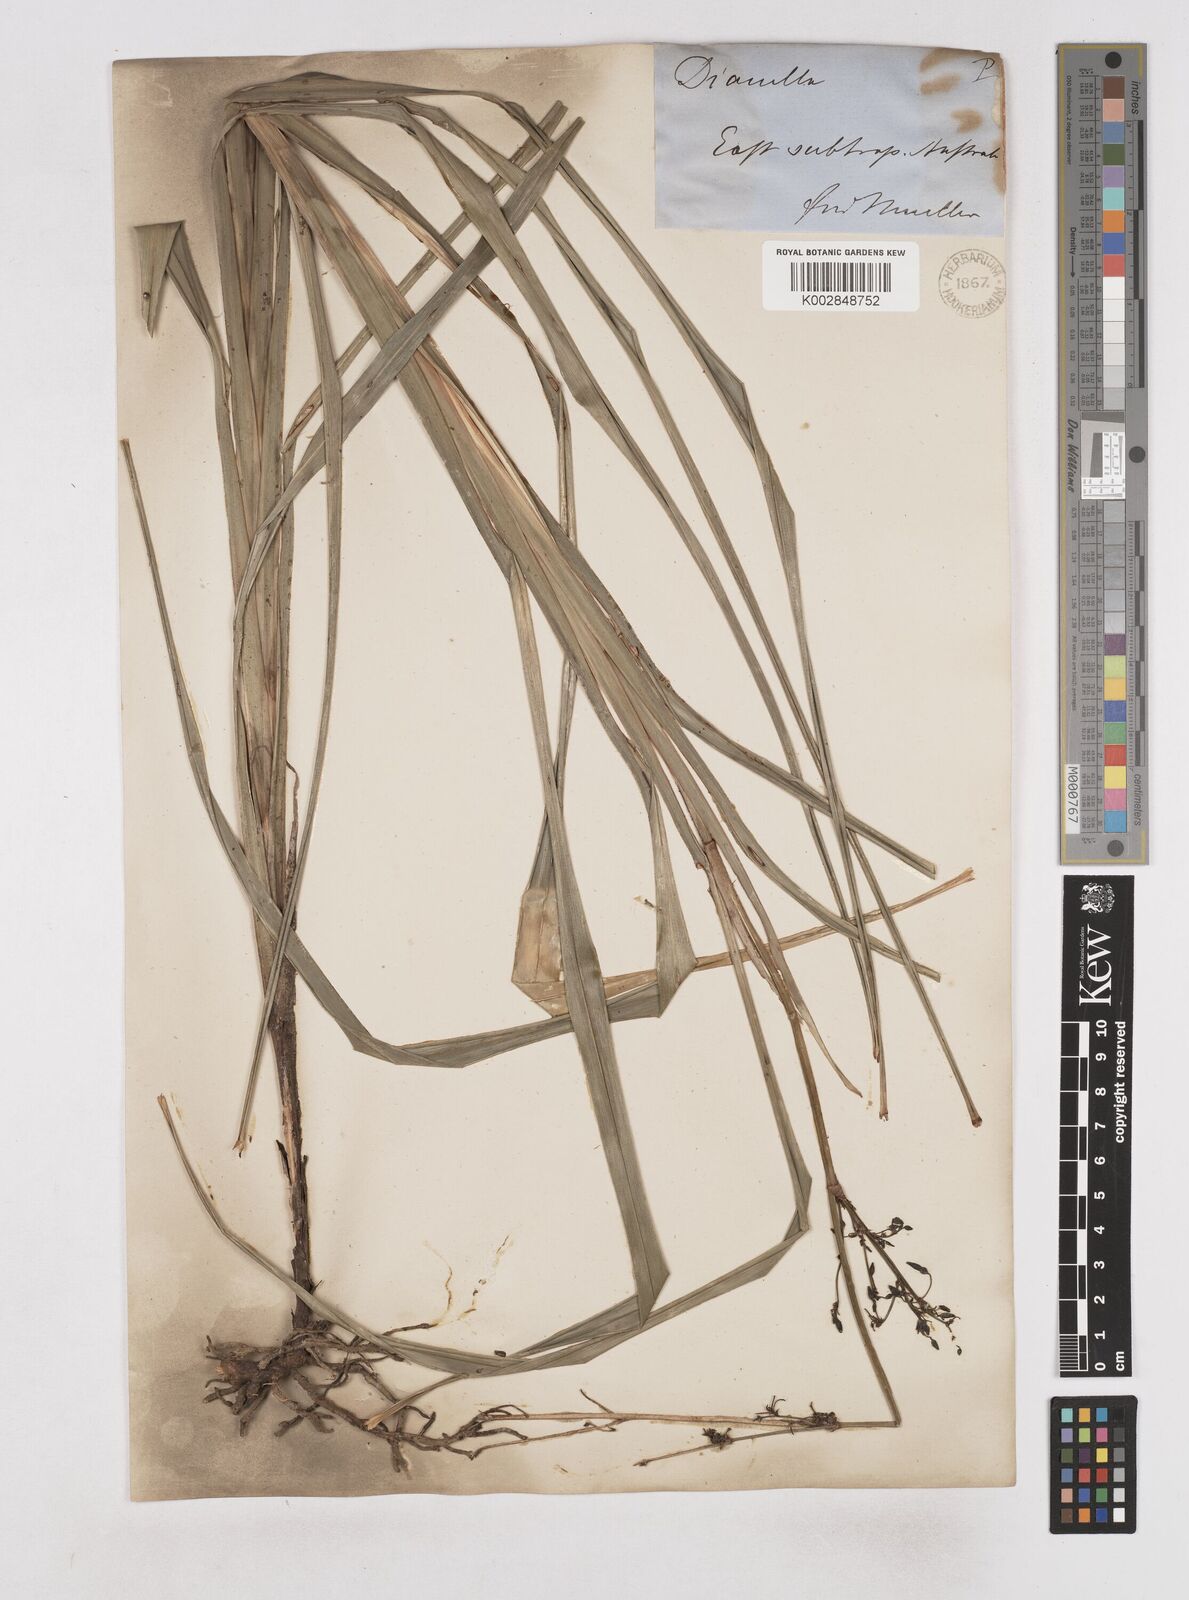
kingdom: Plantae
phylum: Tracheophyta
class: Liliopsida
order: Asparagales
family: Asphodelaceae
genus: Dianella
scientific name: Dianella
